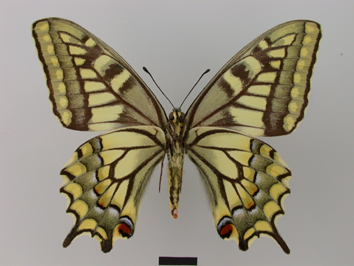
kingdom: Animalia
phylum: Arthropoda
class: Insecta
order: Lepidoptera
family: Papilionidae
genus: Papilio
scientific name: Papilio machaon
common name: Swallowtail
